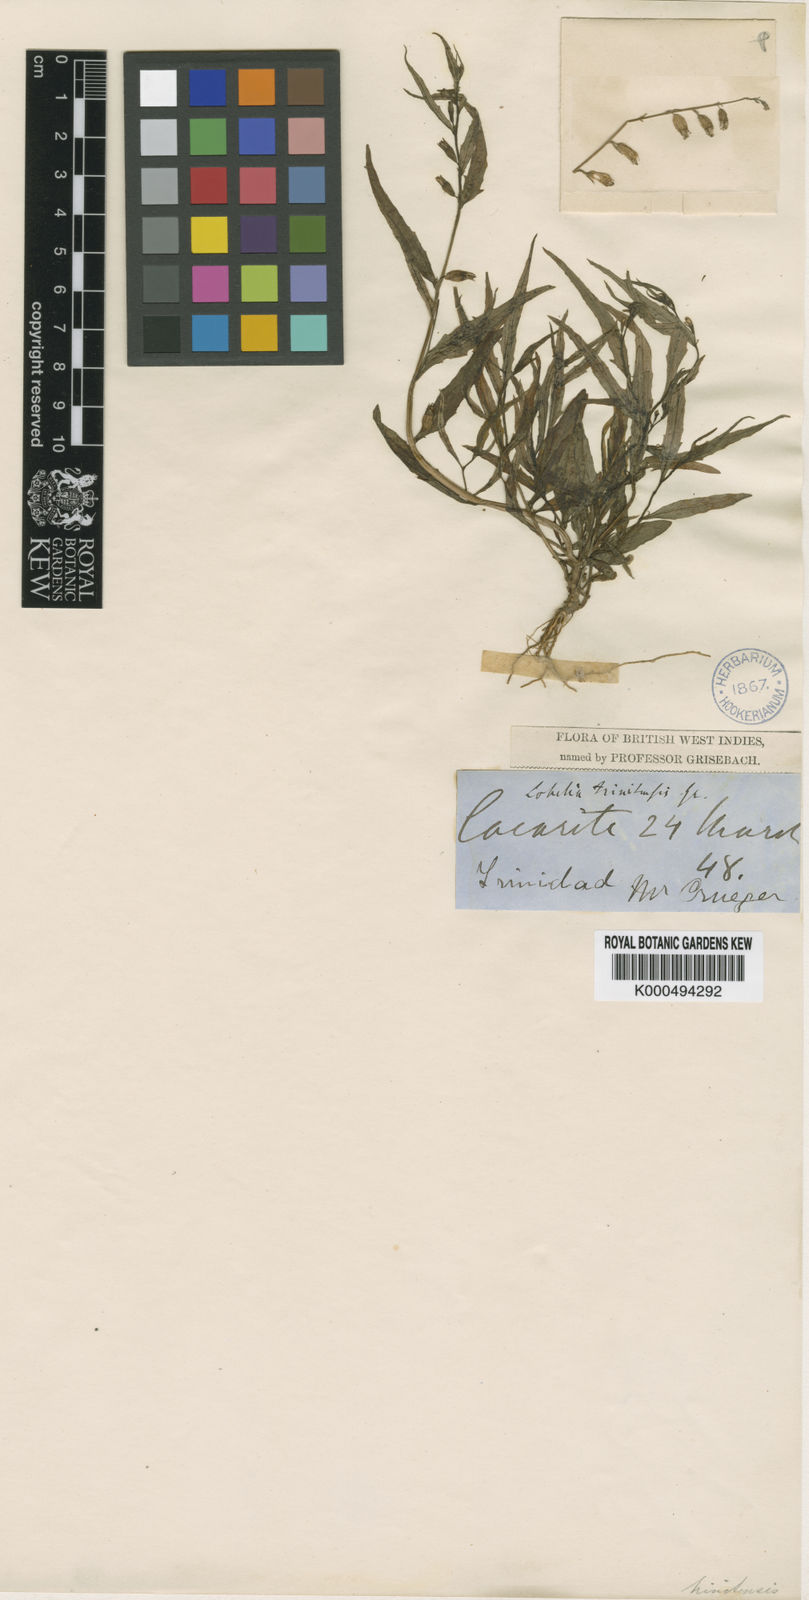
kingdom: Plantae
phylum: Tracheophyta
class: Magnoliopsida
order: Asterales
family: Campanulaceae
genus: Lobelia
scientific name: Lobelia fastigiata
